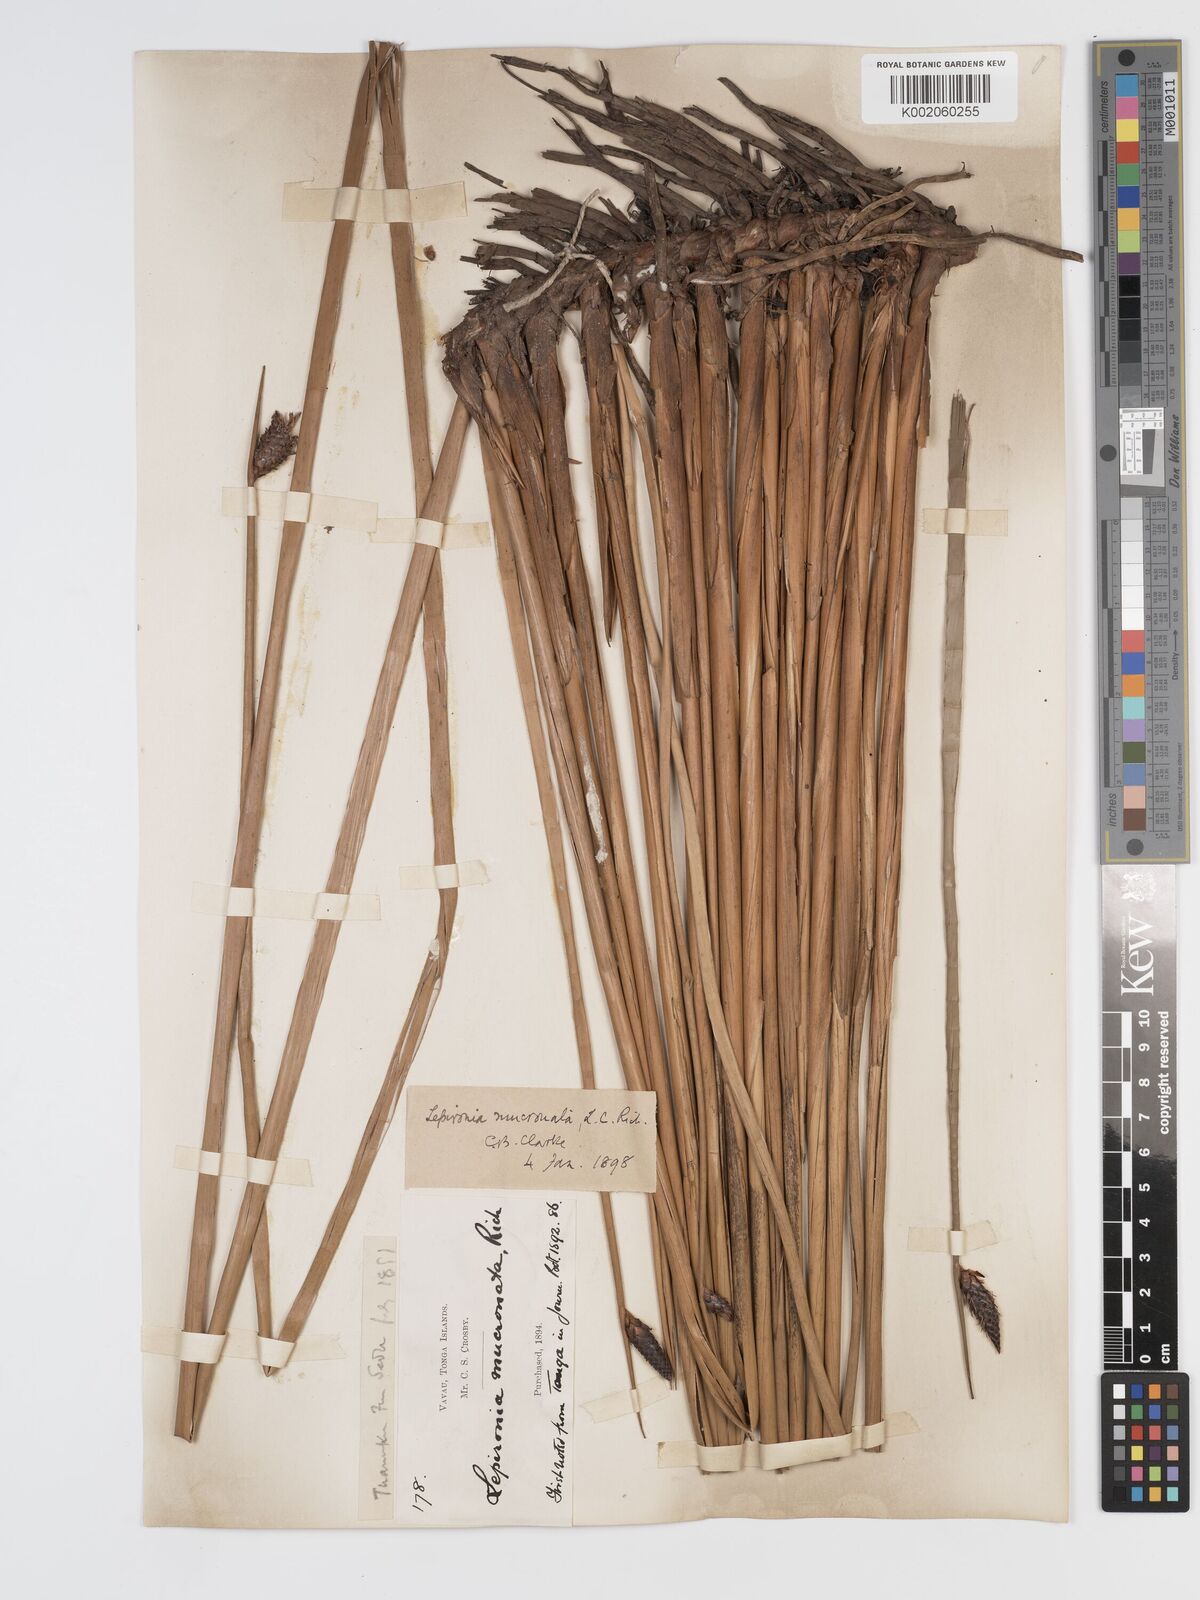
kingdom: Plantae
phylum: Tracheophyta
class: Liliopsida
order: Poales
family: Cyperaceae
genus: Lepironia
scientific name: Lepironia articulata
